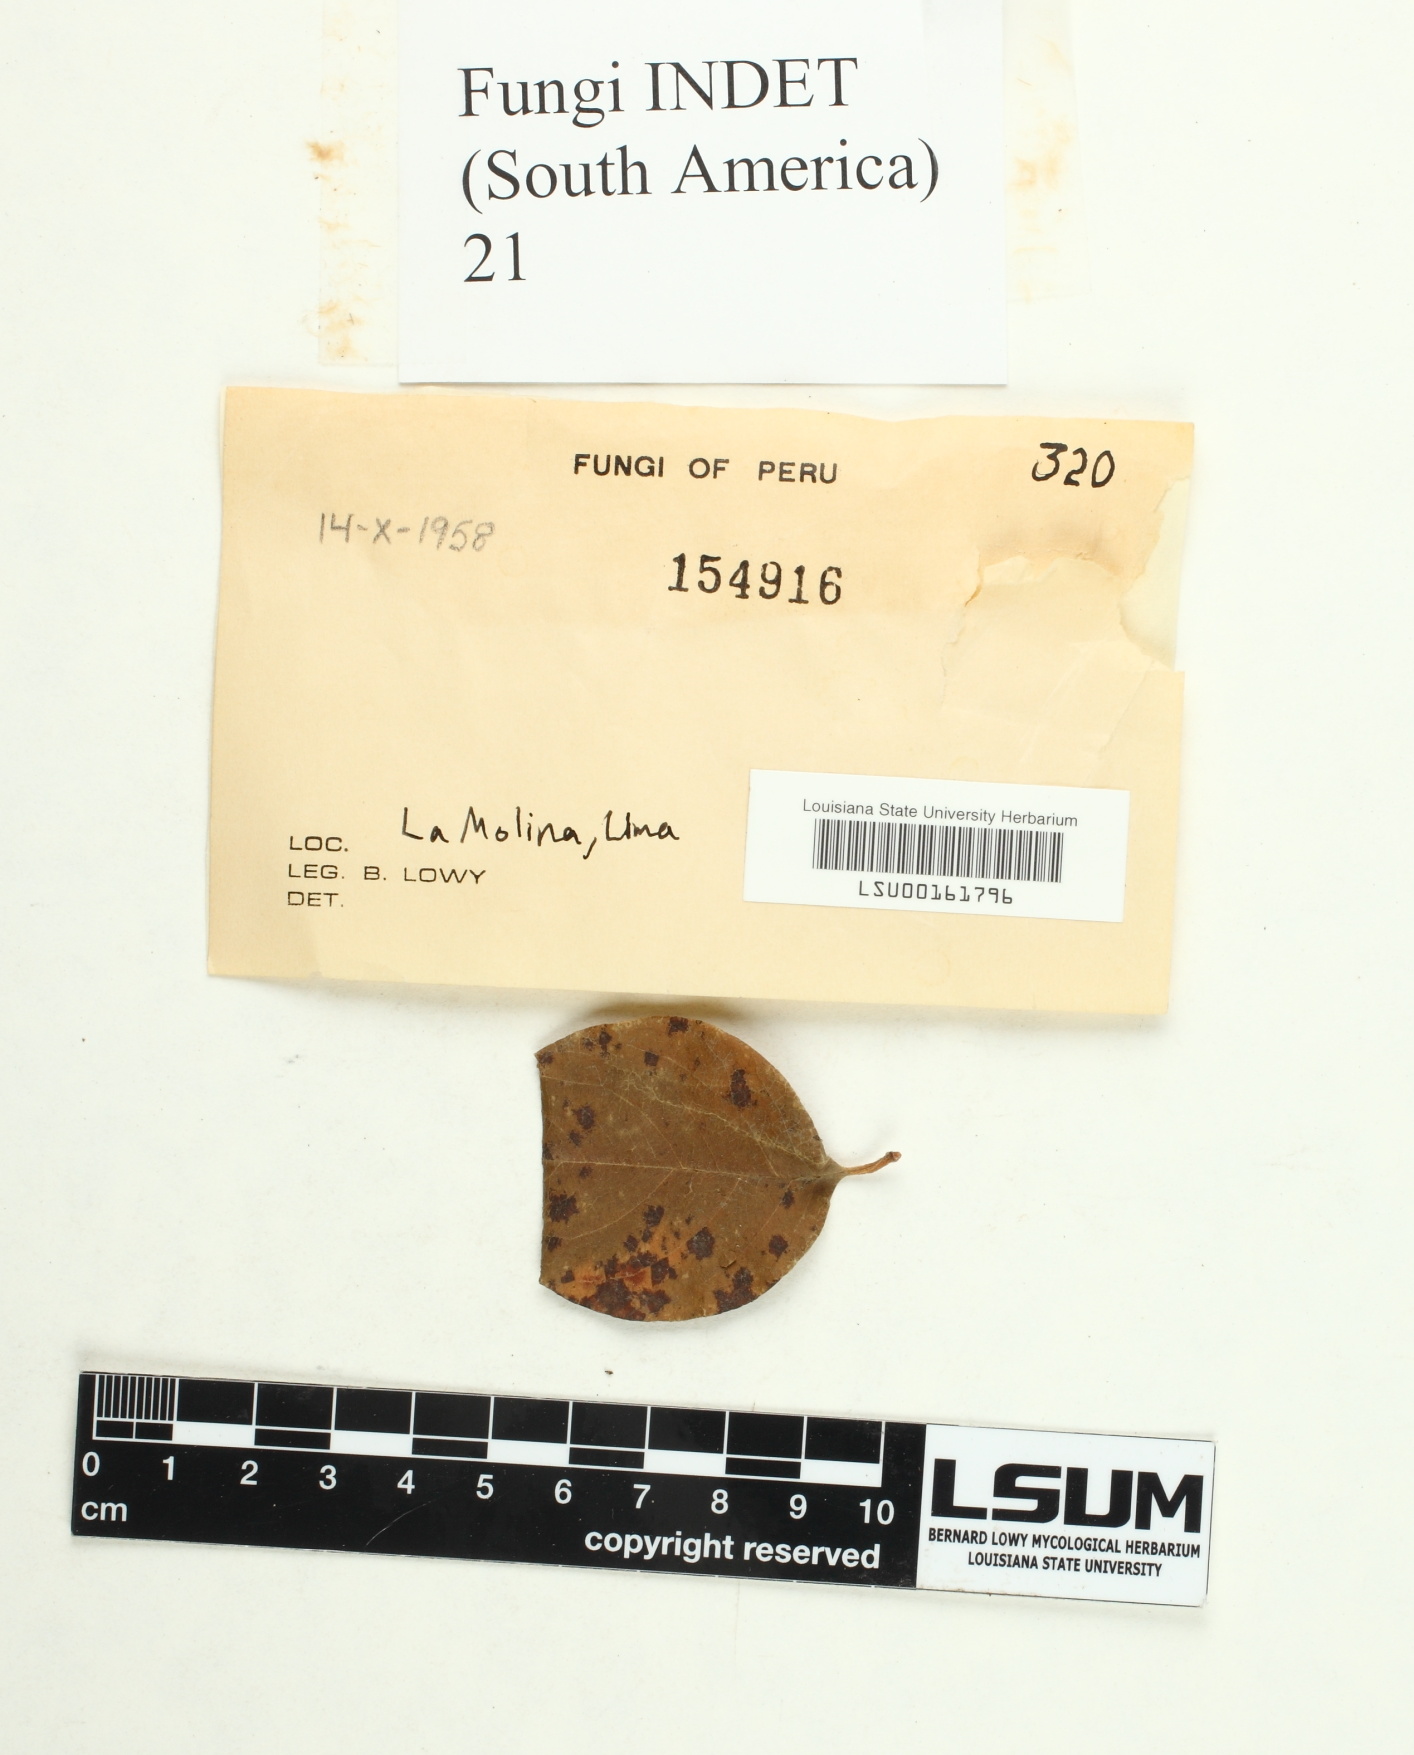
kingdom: Fungi
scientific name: Fungi
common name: Fungi
